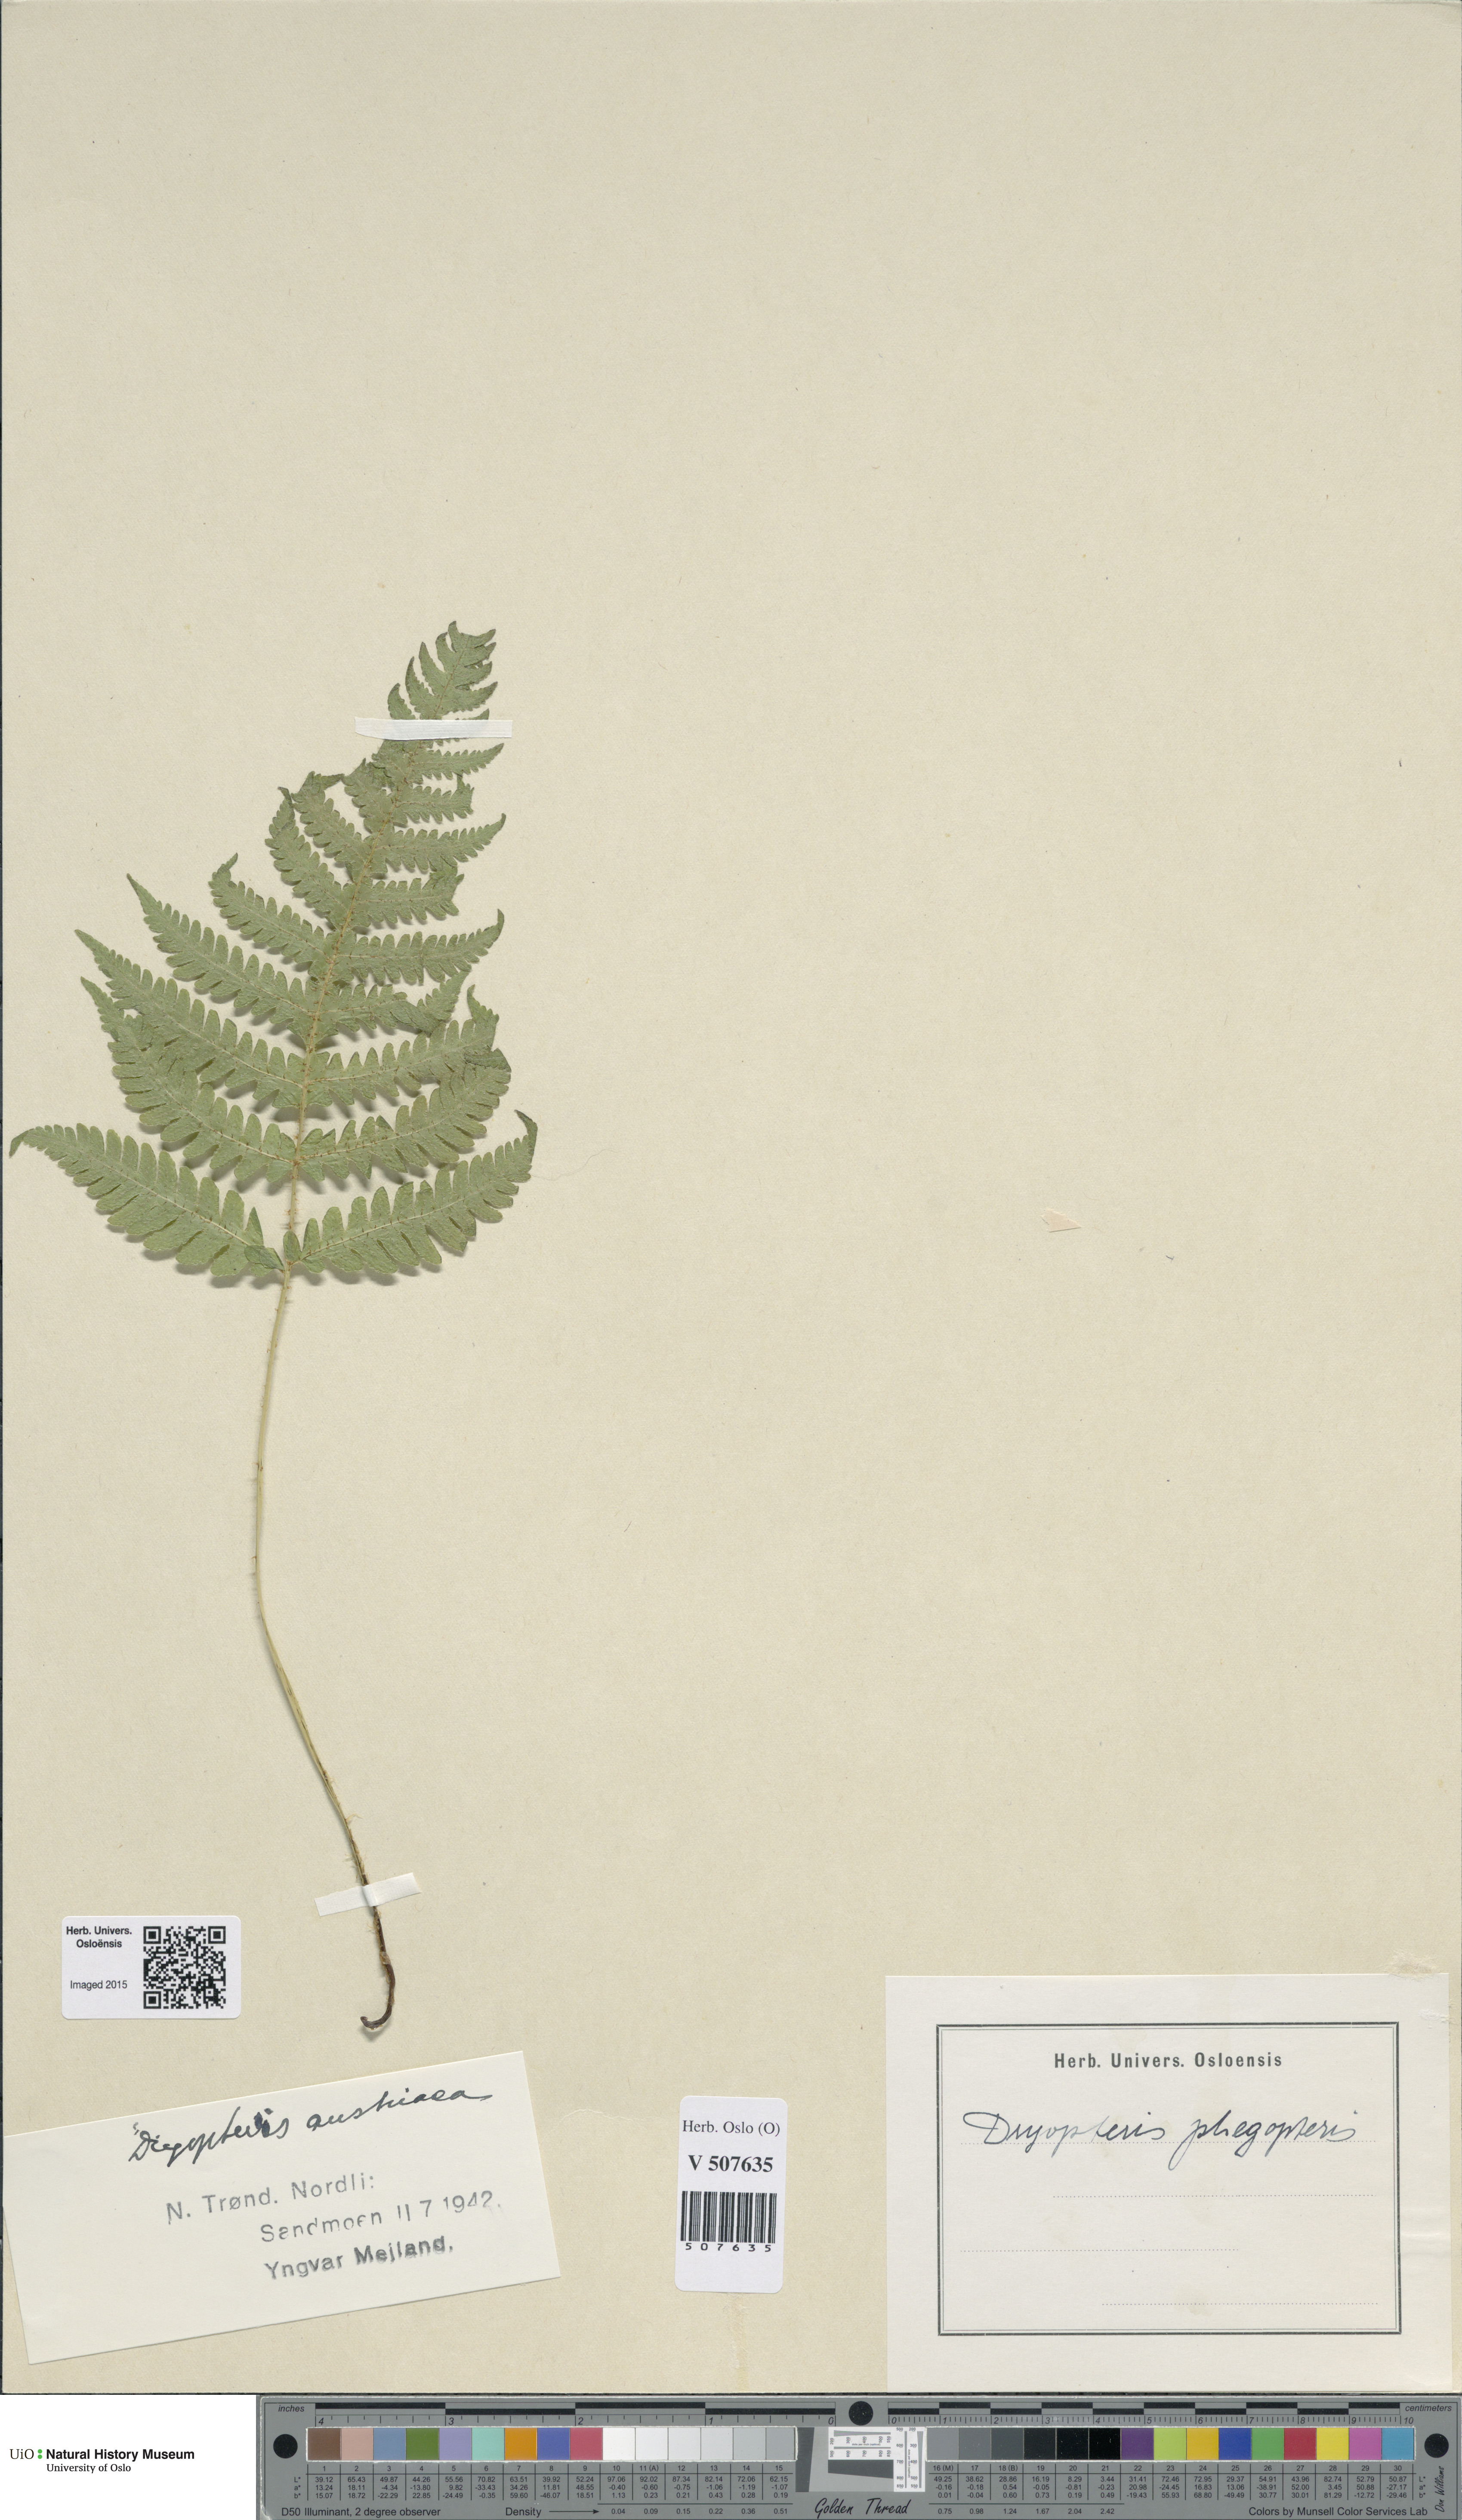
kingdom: Plantae
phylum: Tracheophyta
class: Polypodiopsida
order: Polypodiales
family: Thelypteridaceae
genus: Phegopteris
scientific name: Phegopteris connectilis
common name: Beech fern
